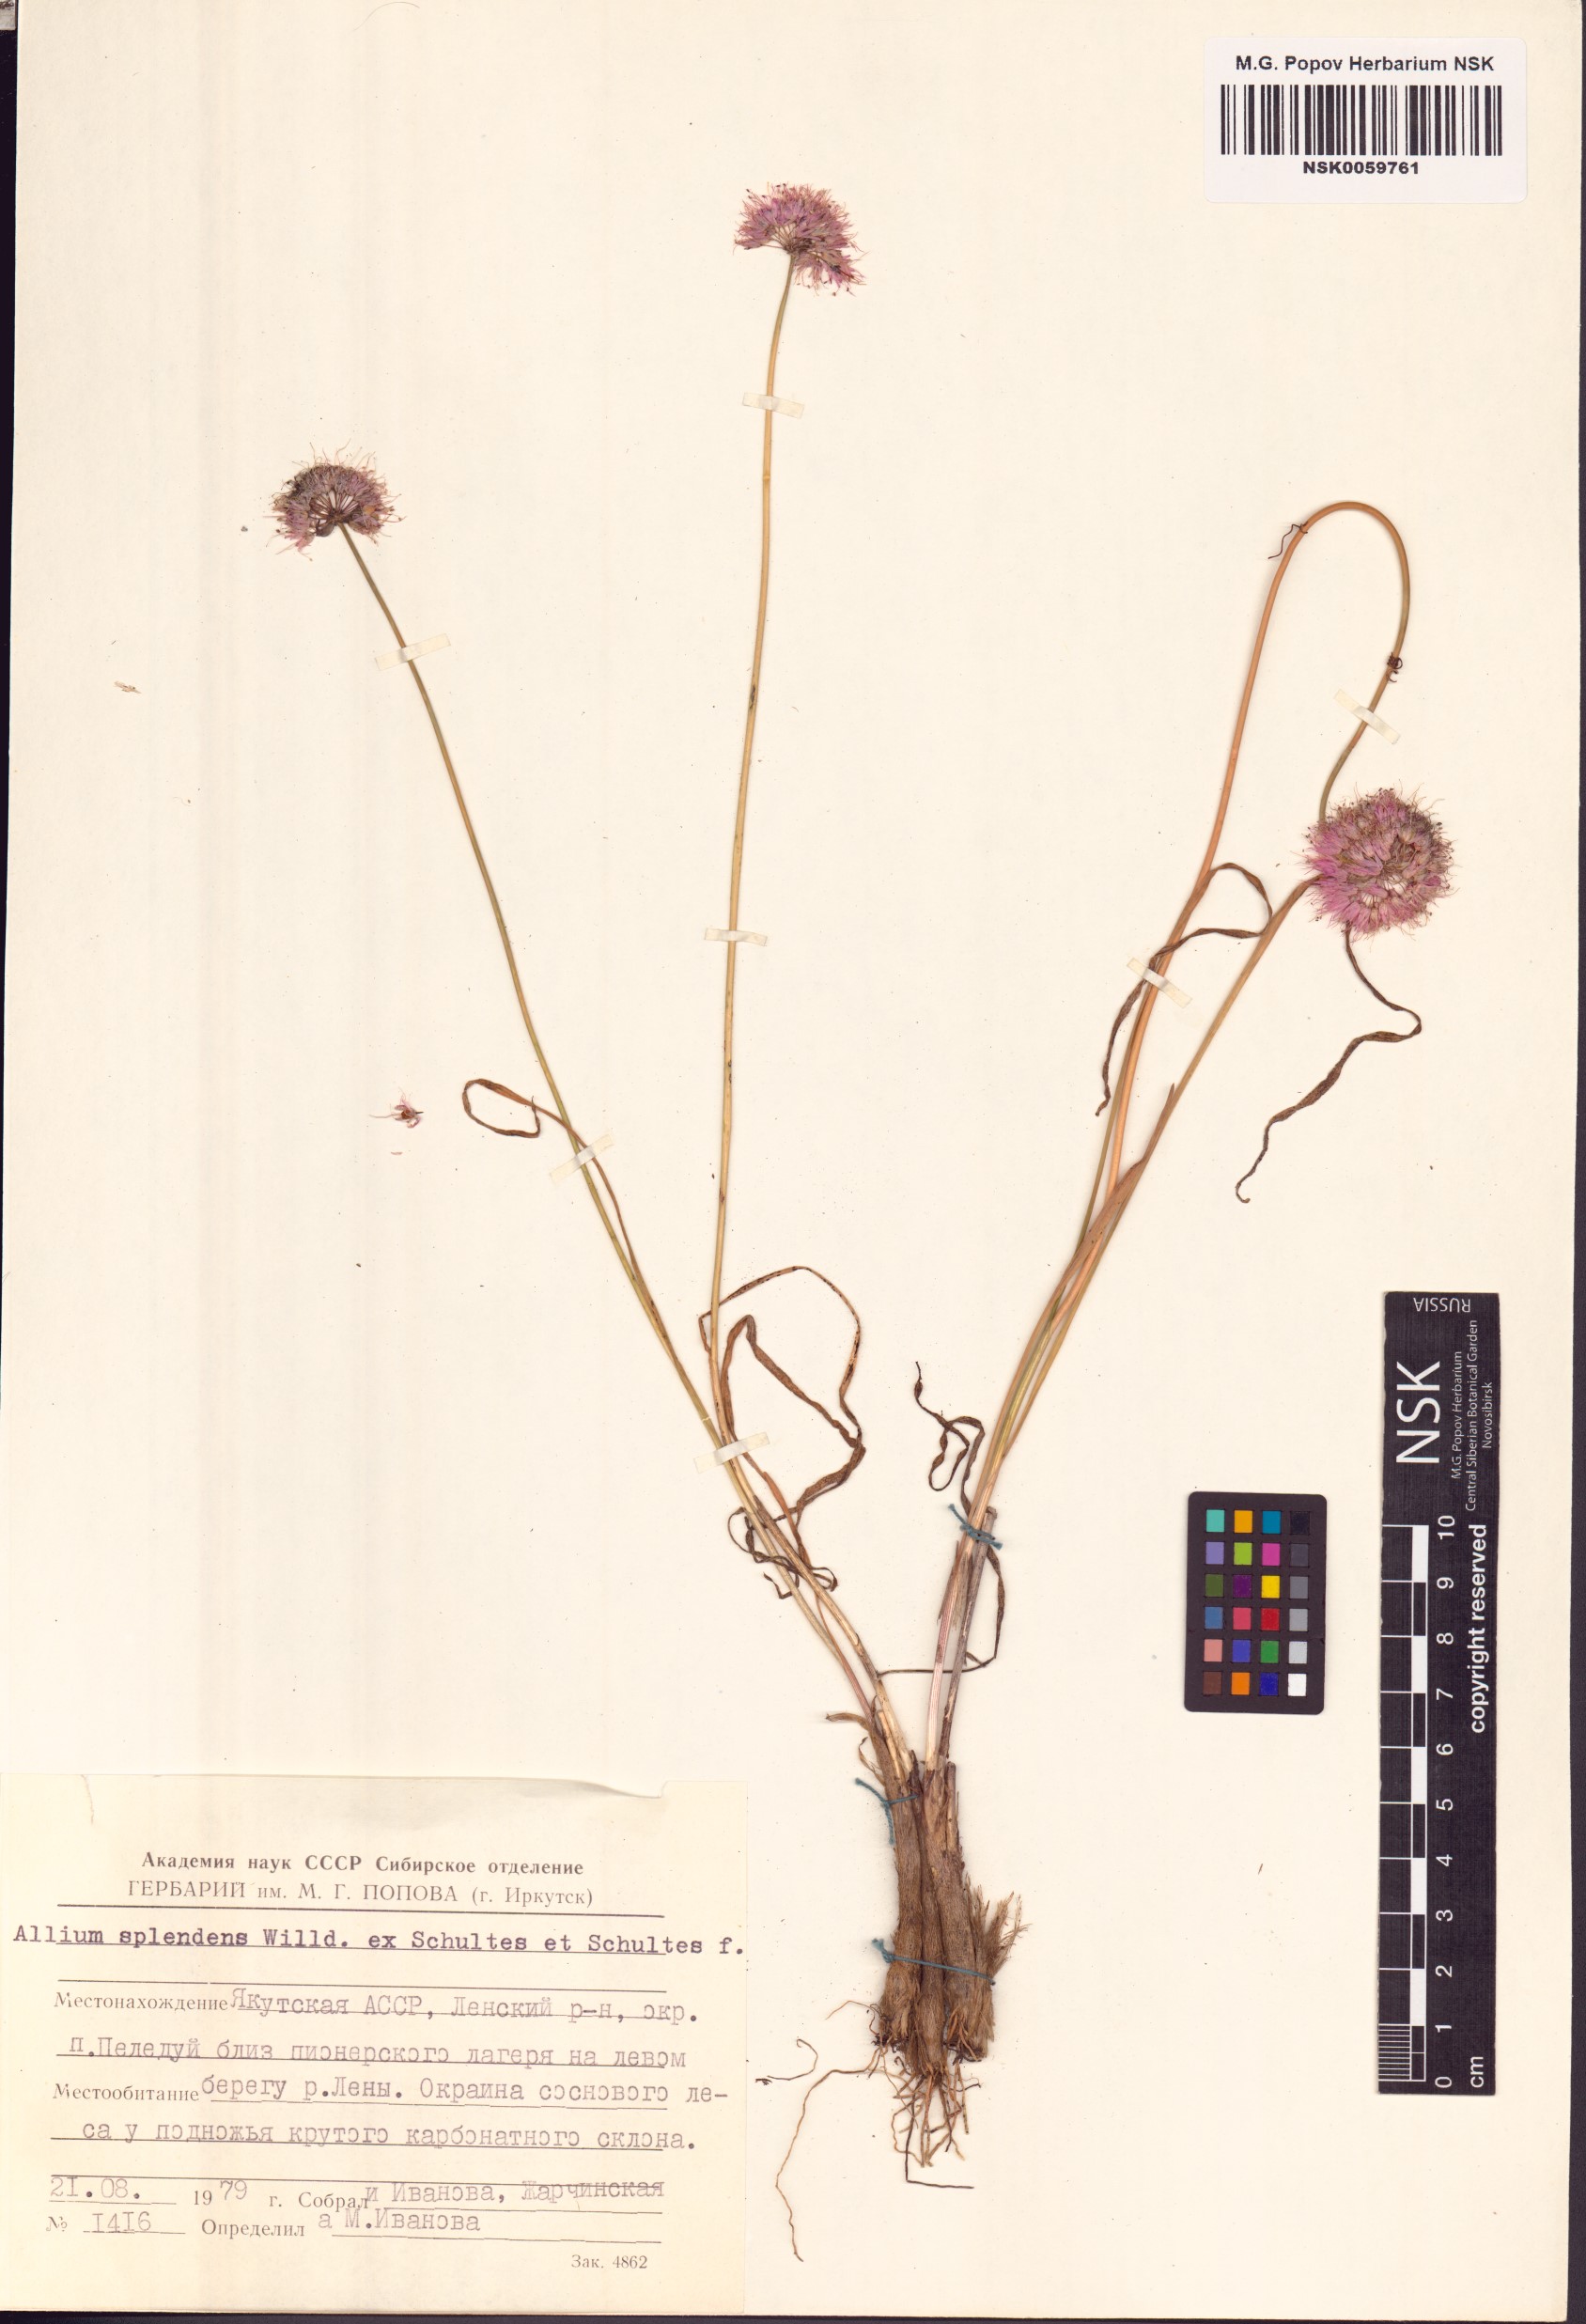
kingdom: Plantae
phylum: Tracheophyta
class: Liliopsida
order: Asparagales
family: Amaryllidaceae
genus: Allium
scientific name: Allium splendens
